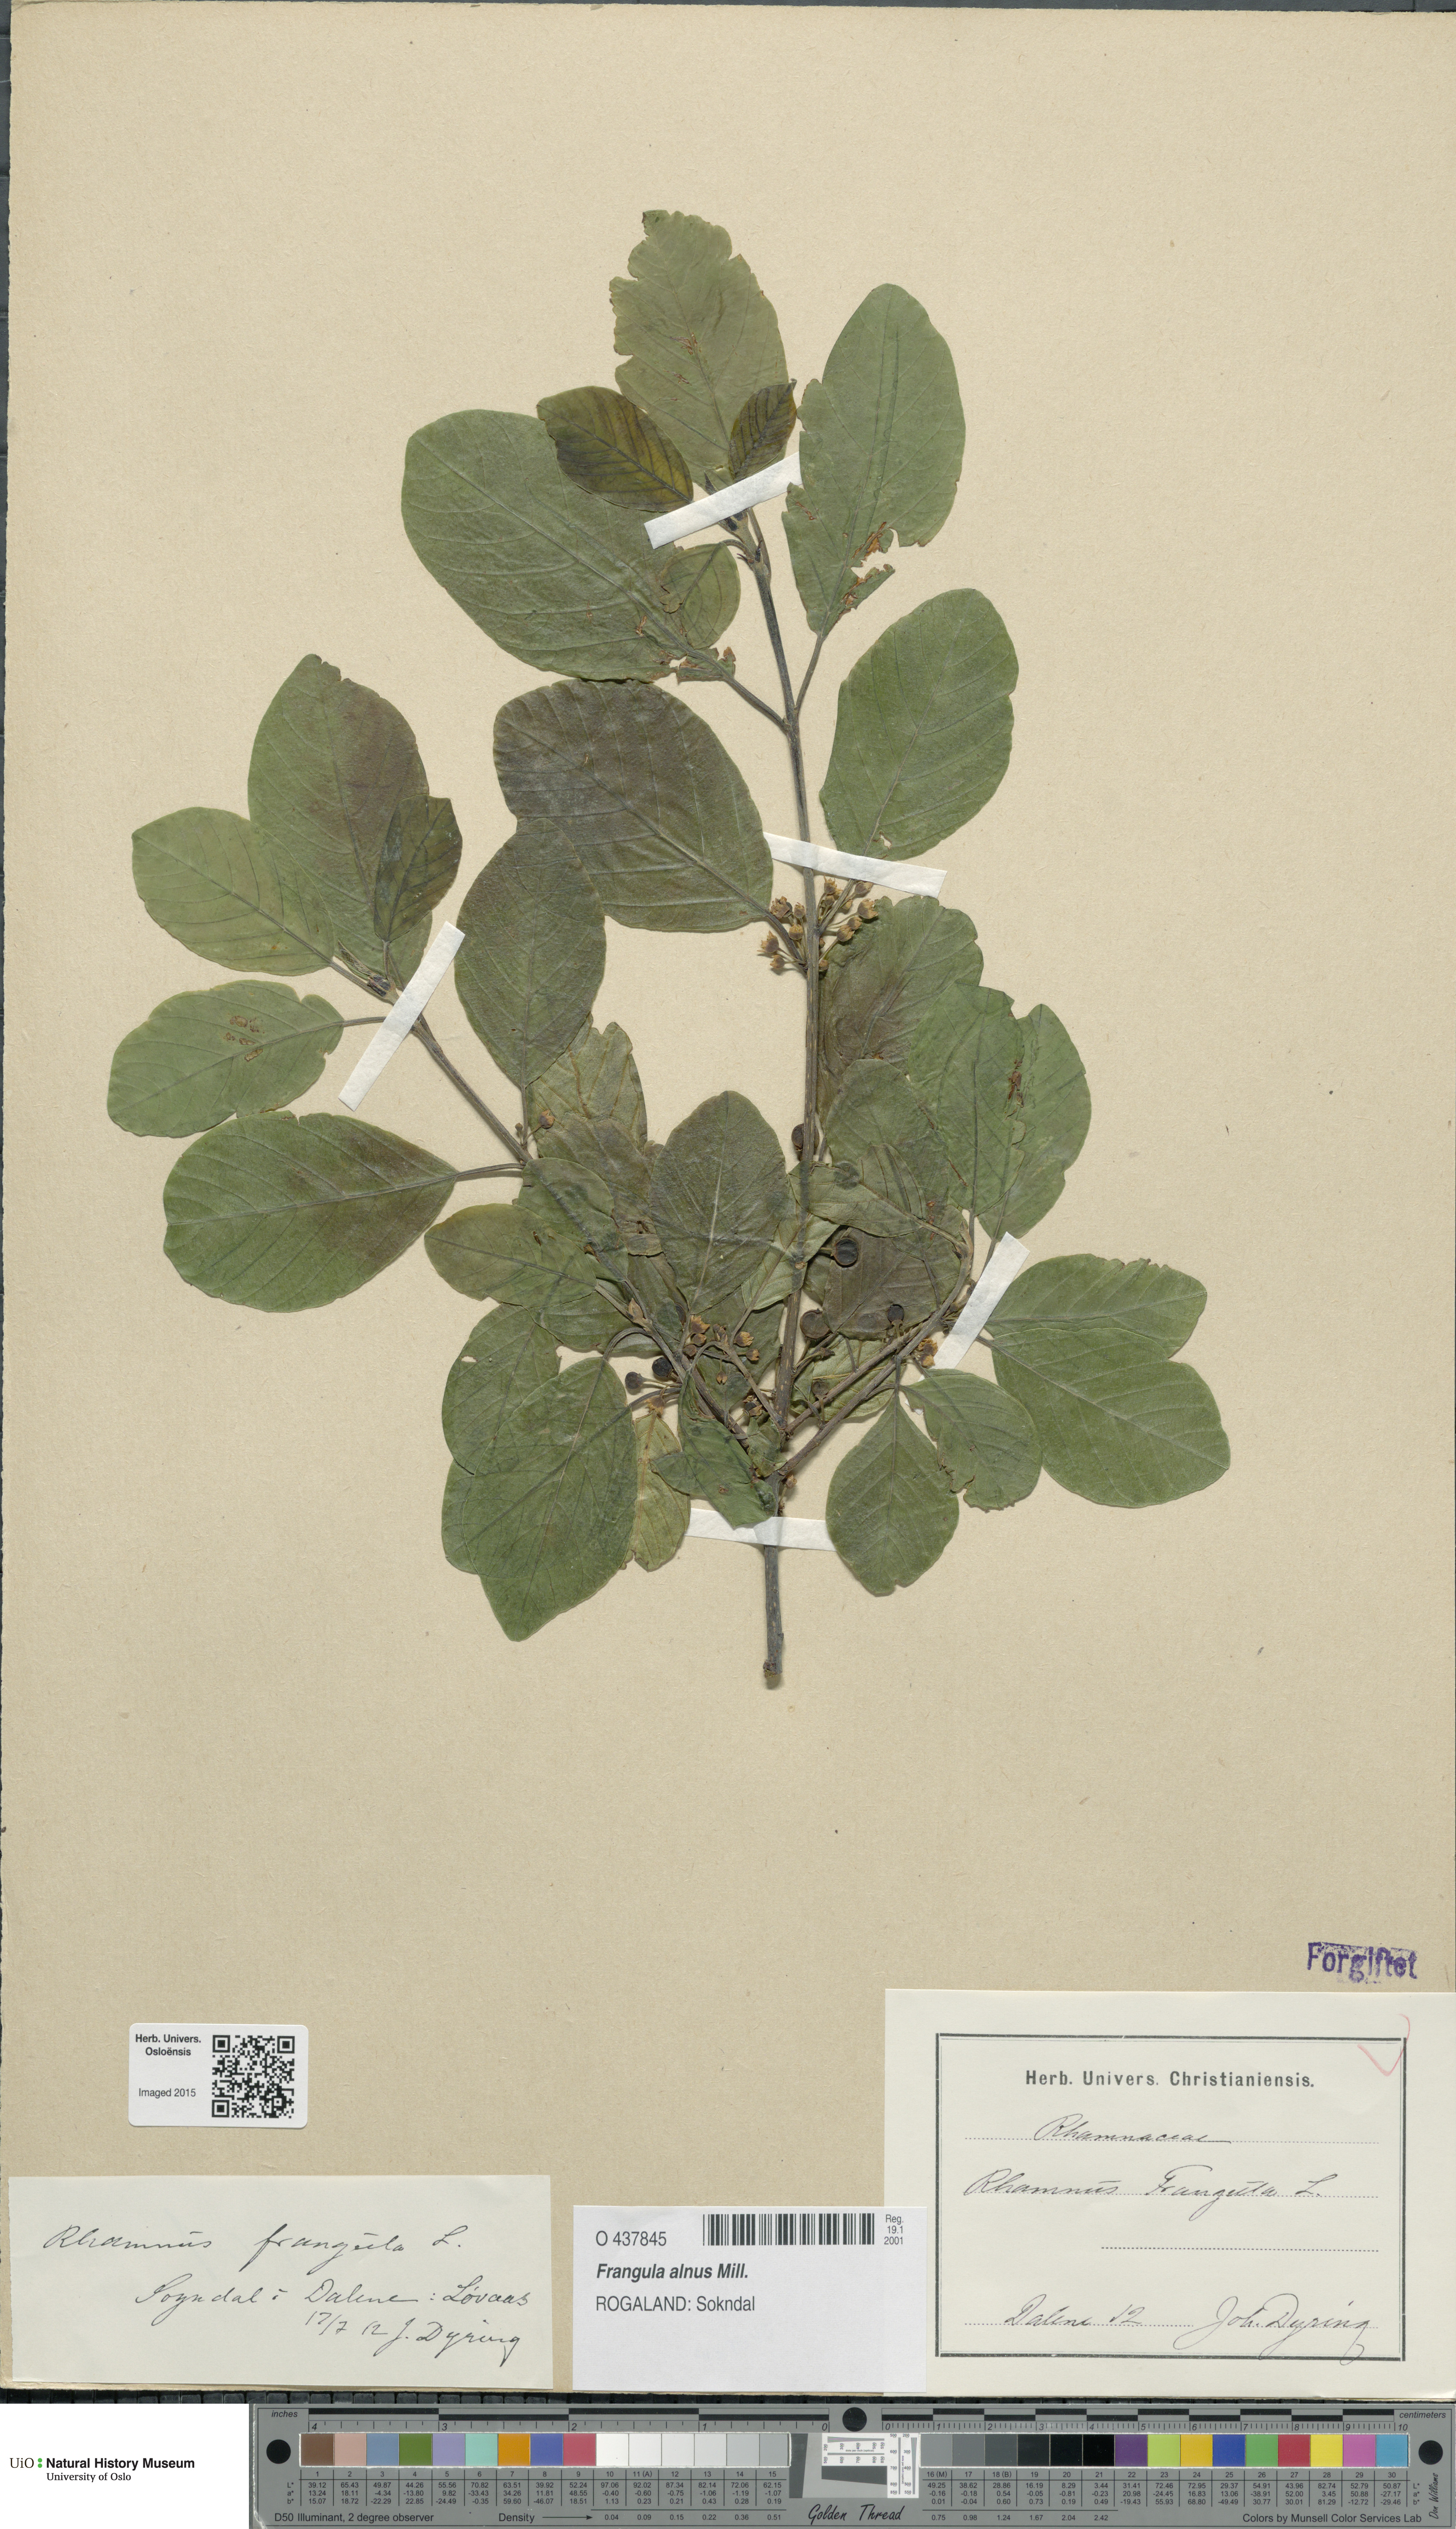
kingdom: Plantae
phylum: Tracheophyta
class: Magnoliopsida
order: Rosales
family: Rhamnaceae
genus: Frangula
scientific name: Frangula alnus
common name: Alder buckthorn
